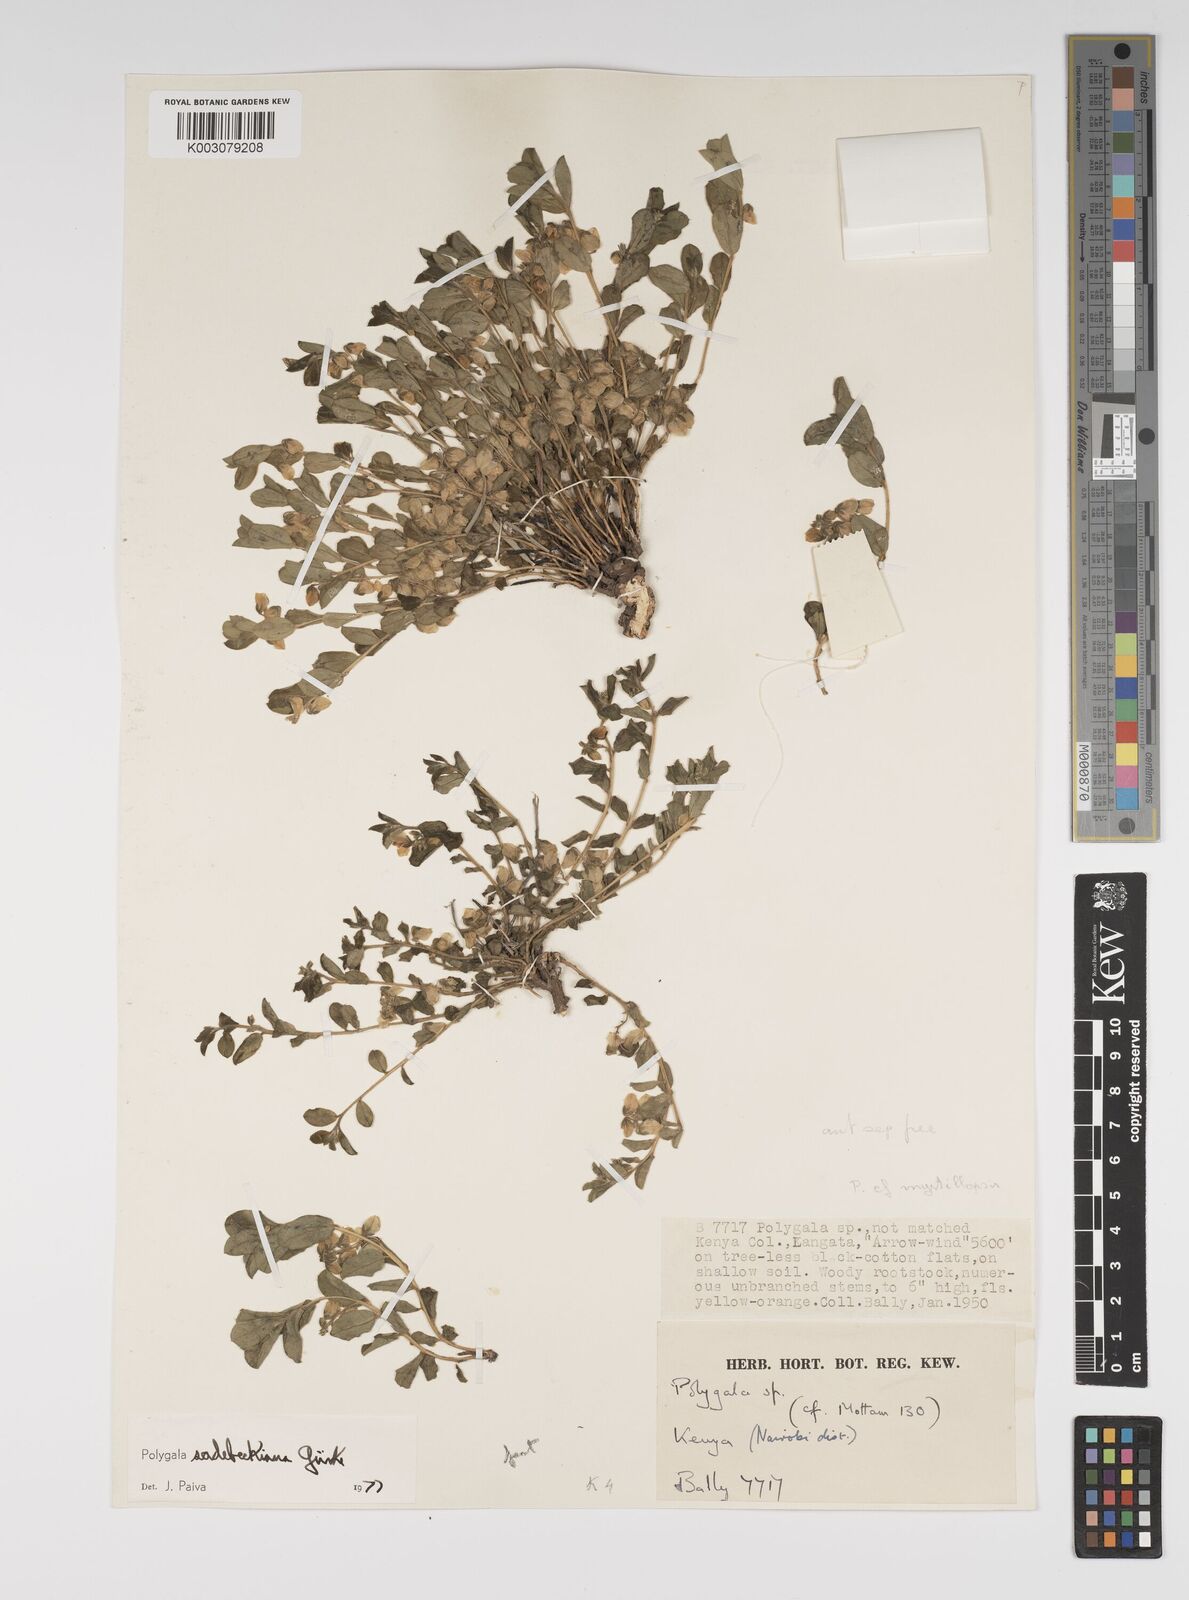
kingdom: Plantae
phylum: Tracheophyta
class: Magnoliopsida
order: Fabales
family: Polygalaceae
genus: Polygala
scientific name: Polygala sadebeckiana
